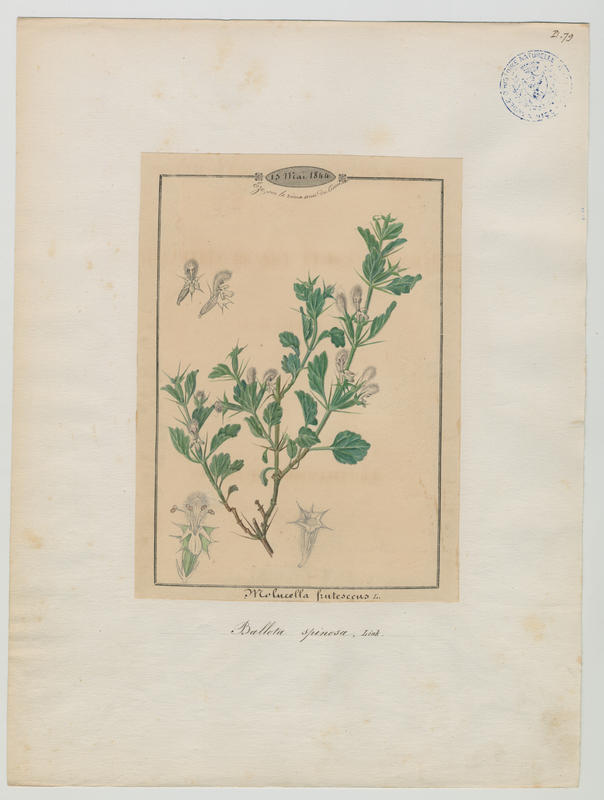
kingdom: Plantae
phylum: Tracheophyta
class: Magnoliopsida
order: Lamiales
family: Lamiaceae
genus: Stachys
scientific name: Stachys spinosa
